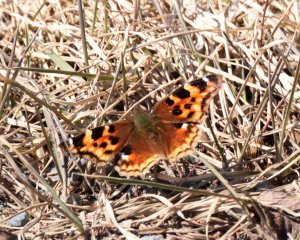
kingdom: Animalia
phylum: Arthropoda
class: Insecta
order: Lepidoptera
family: Nymphalidae
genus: Polygonia
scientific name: Polygonia vaualbum
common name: Compton Tortoiseshell
